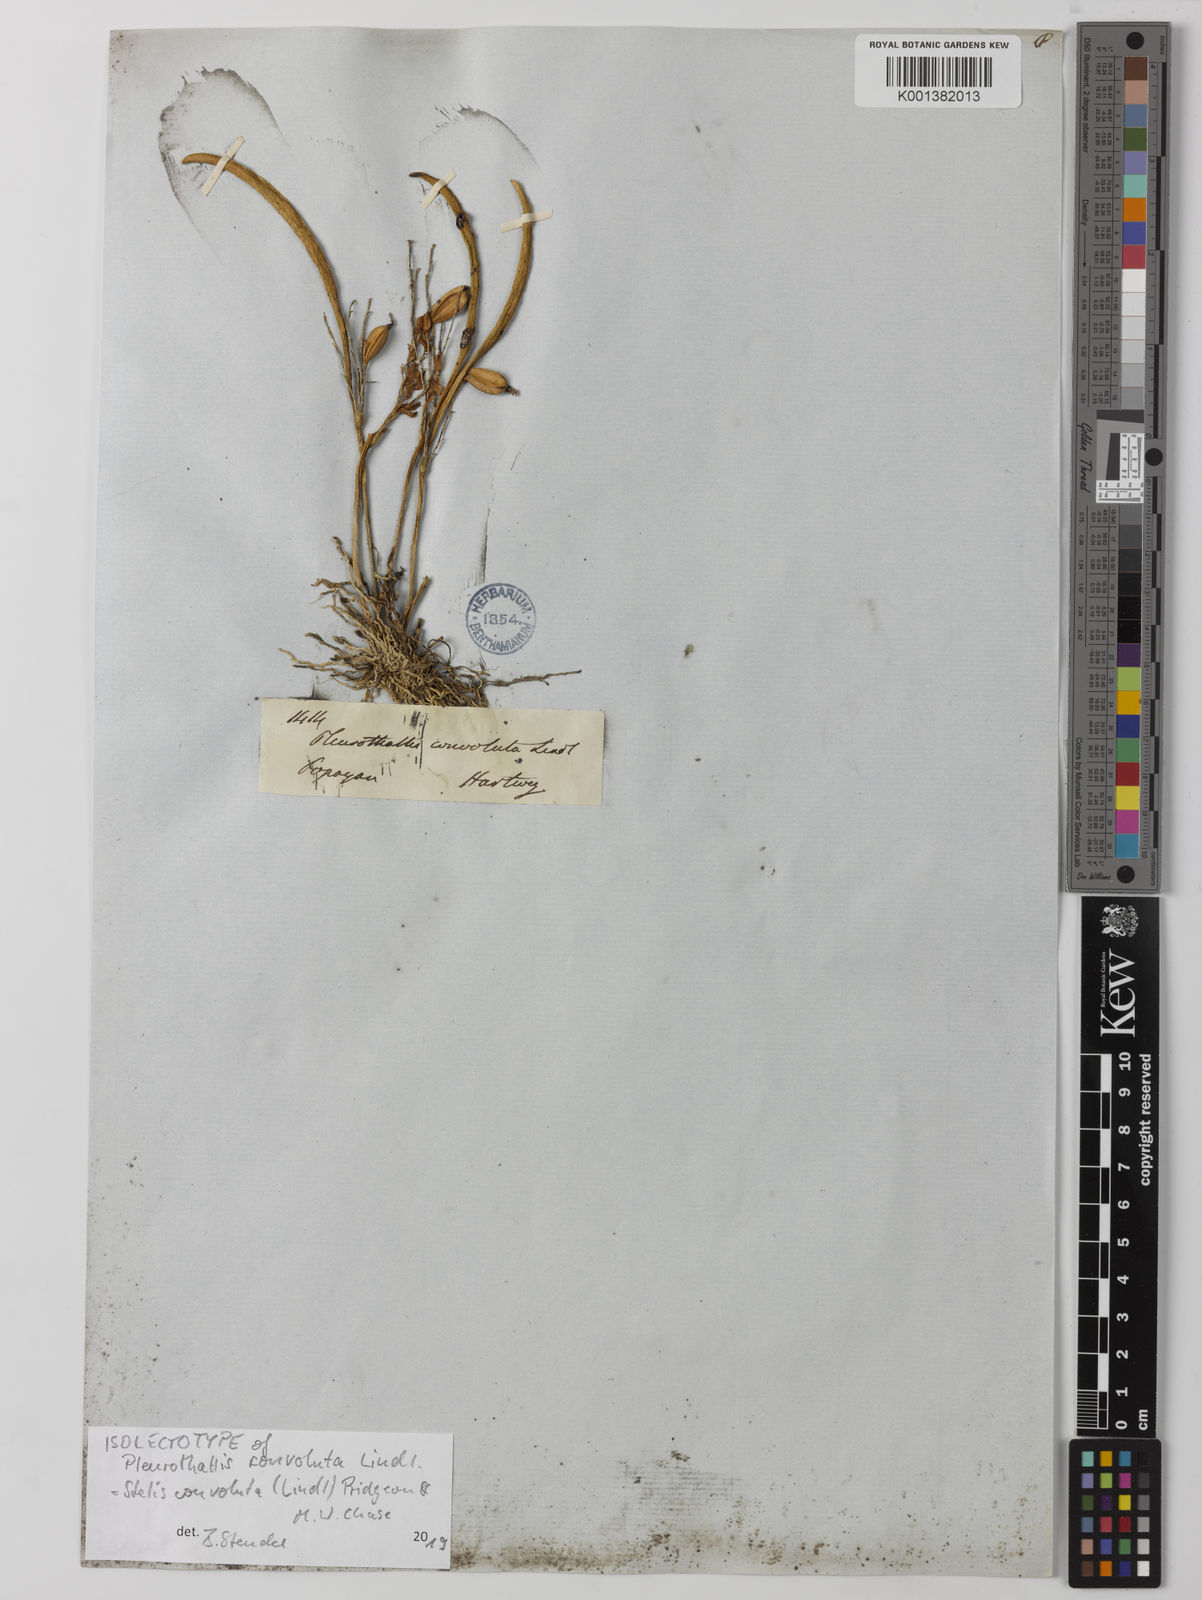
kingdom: Plantae
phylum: Tracheophyta
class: Liliopsida
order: Asparagales
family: Orchidaceae
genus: Stelis
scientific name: Stelis convoluta
